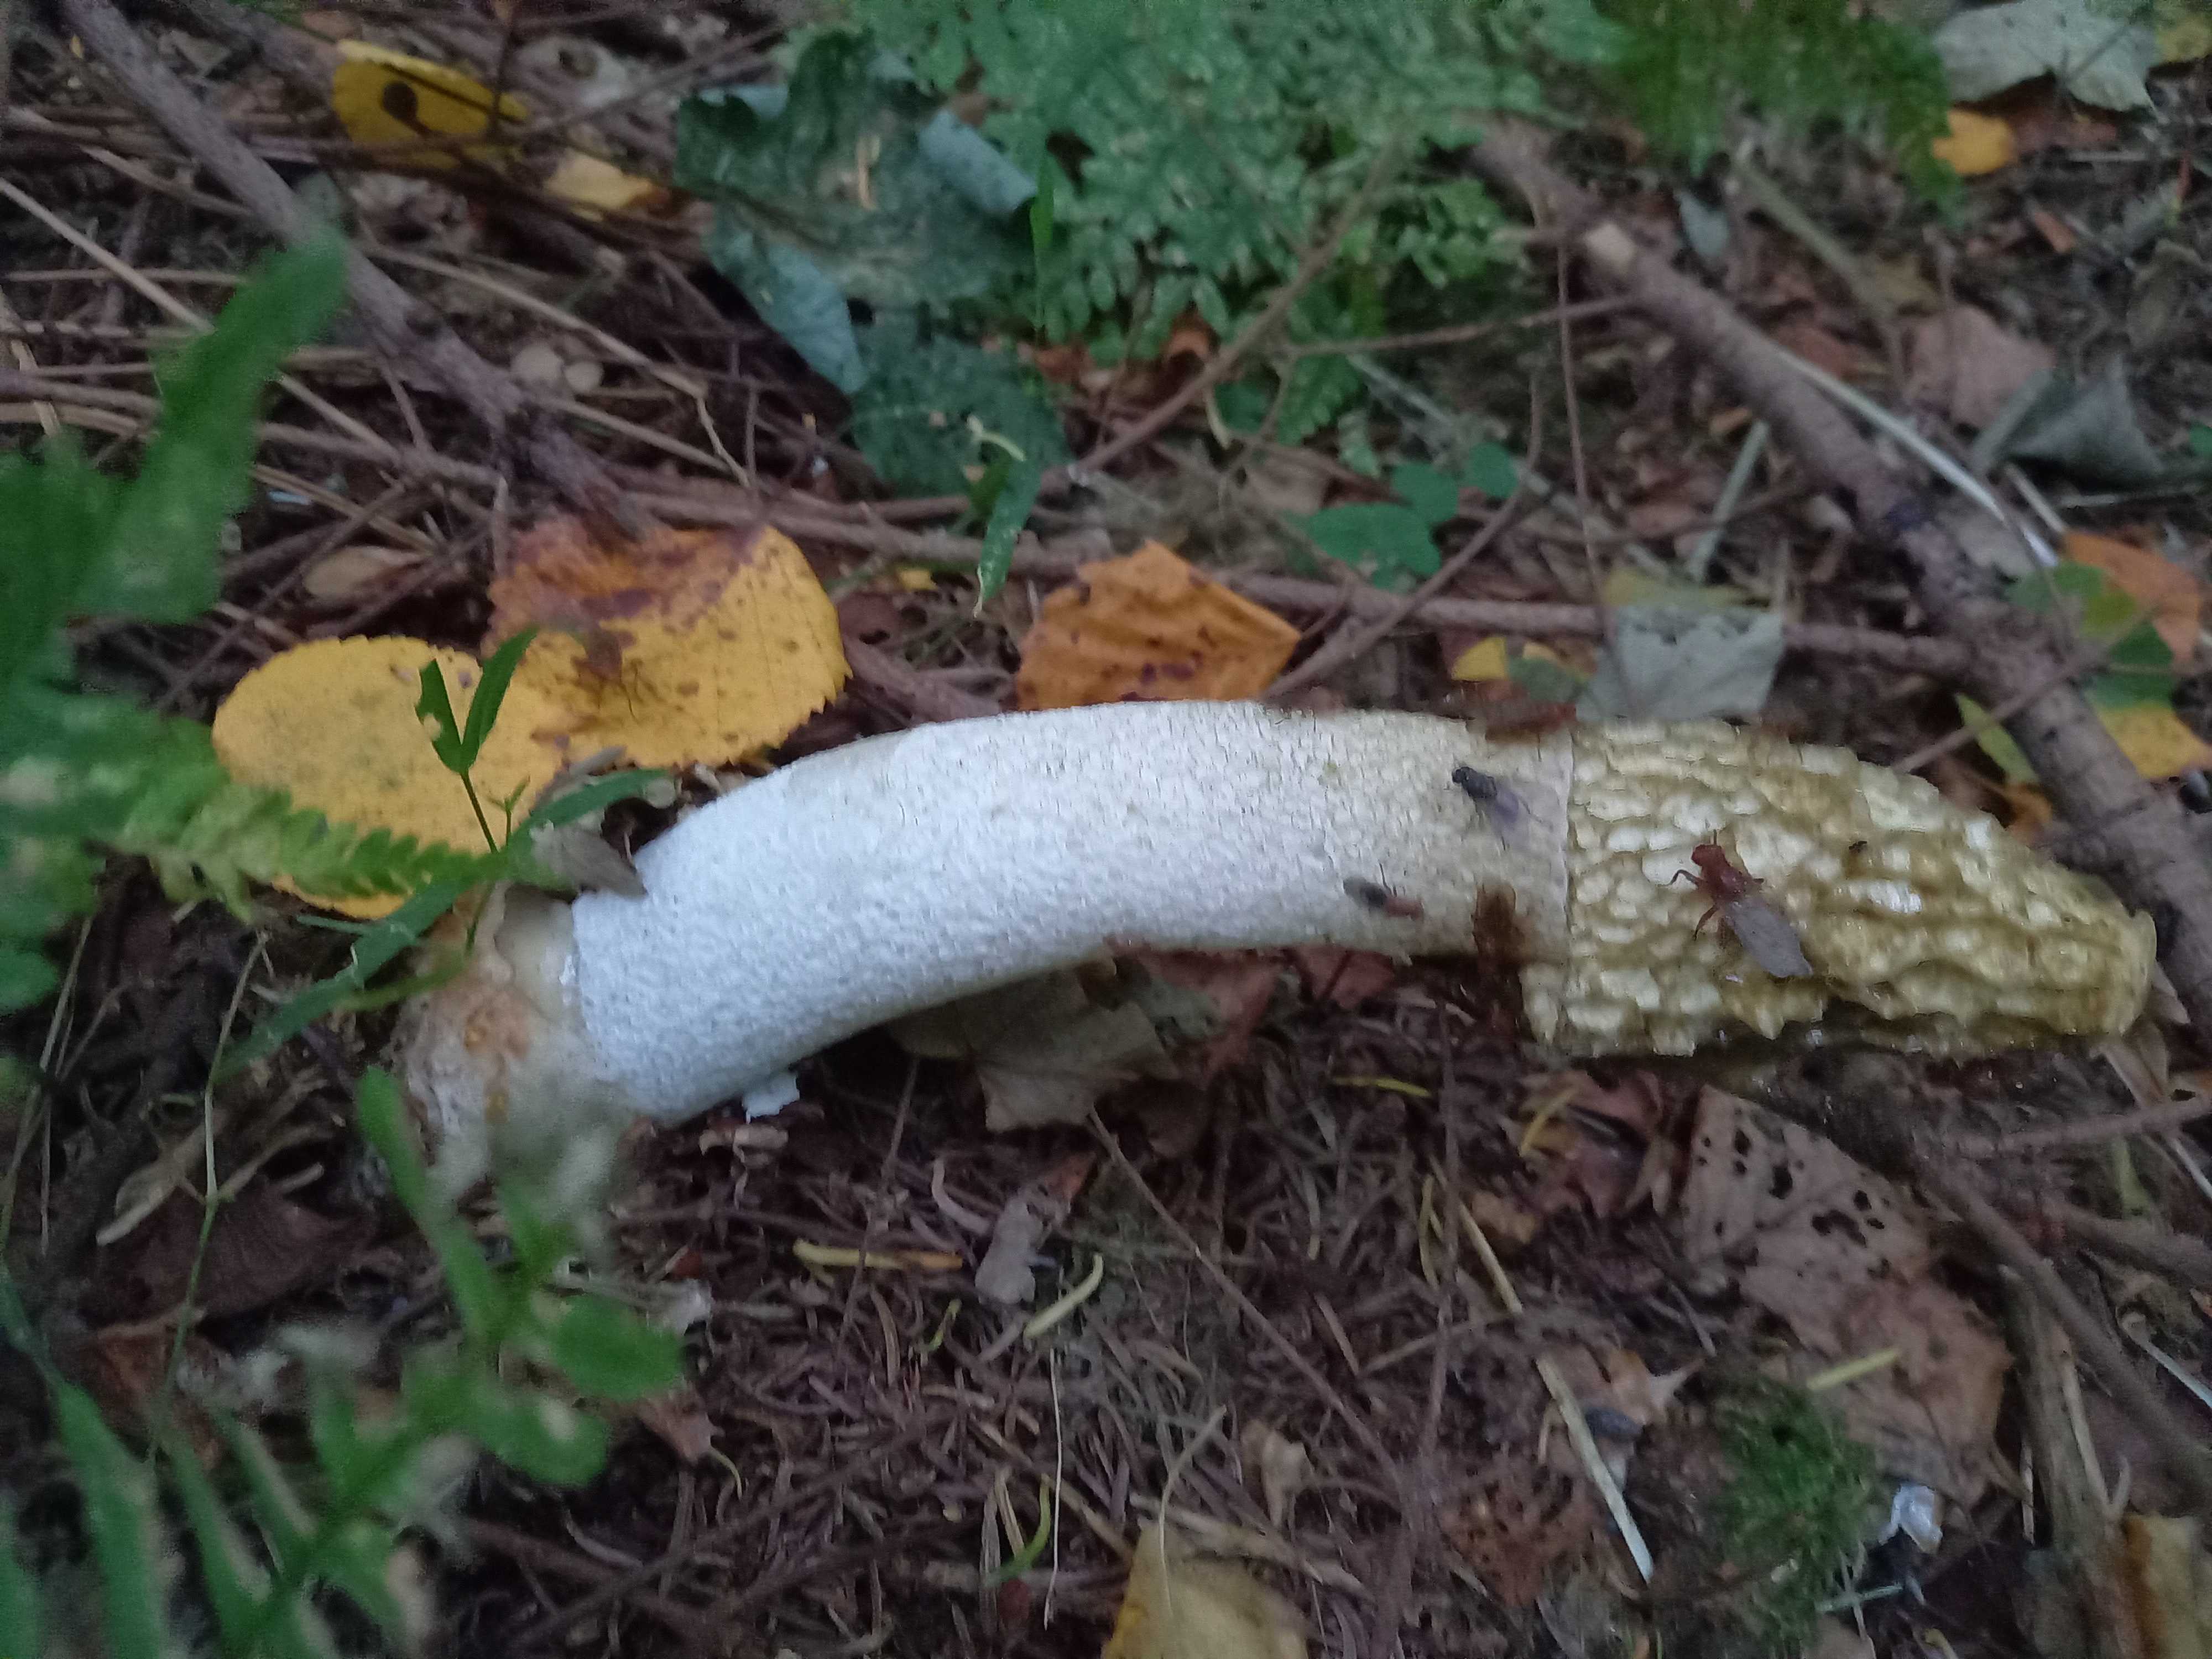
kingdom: Fungi
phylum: Basidiomycota
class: Agaricomycetes
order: Phallales
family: Phallaceae
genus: Phallus
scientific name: Phallus impudicus
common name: almindelig stinksvamp
